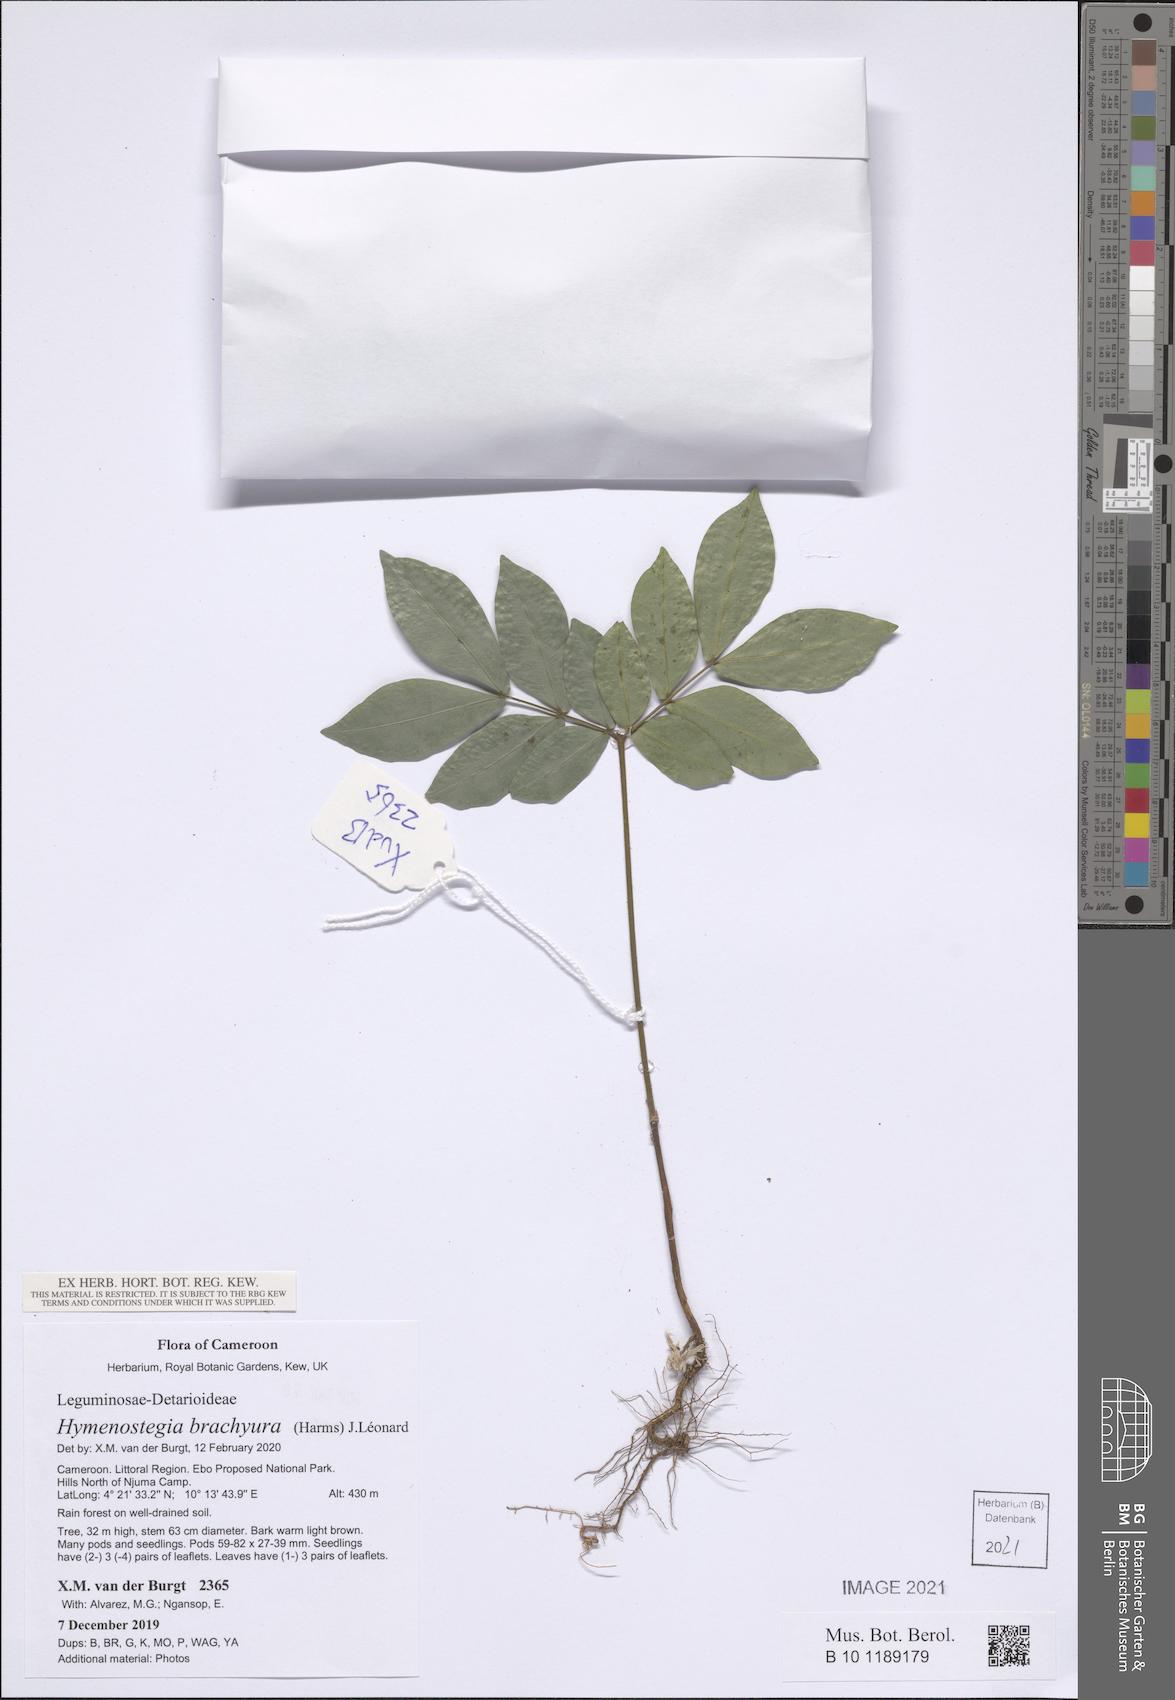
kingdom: Plantae
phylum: Tracheophyta
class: Magnoliopsida
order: Fabales
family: Fabaceae
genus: Hymenostegia
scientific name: Hymenostegia brachyura
